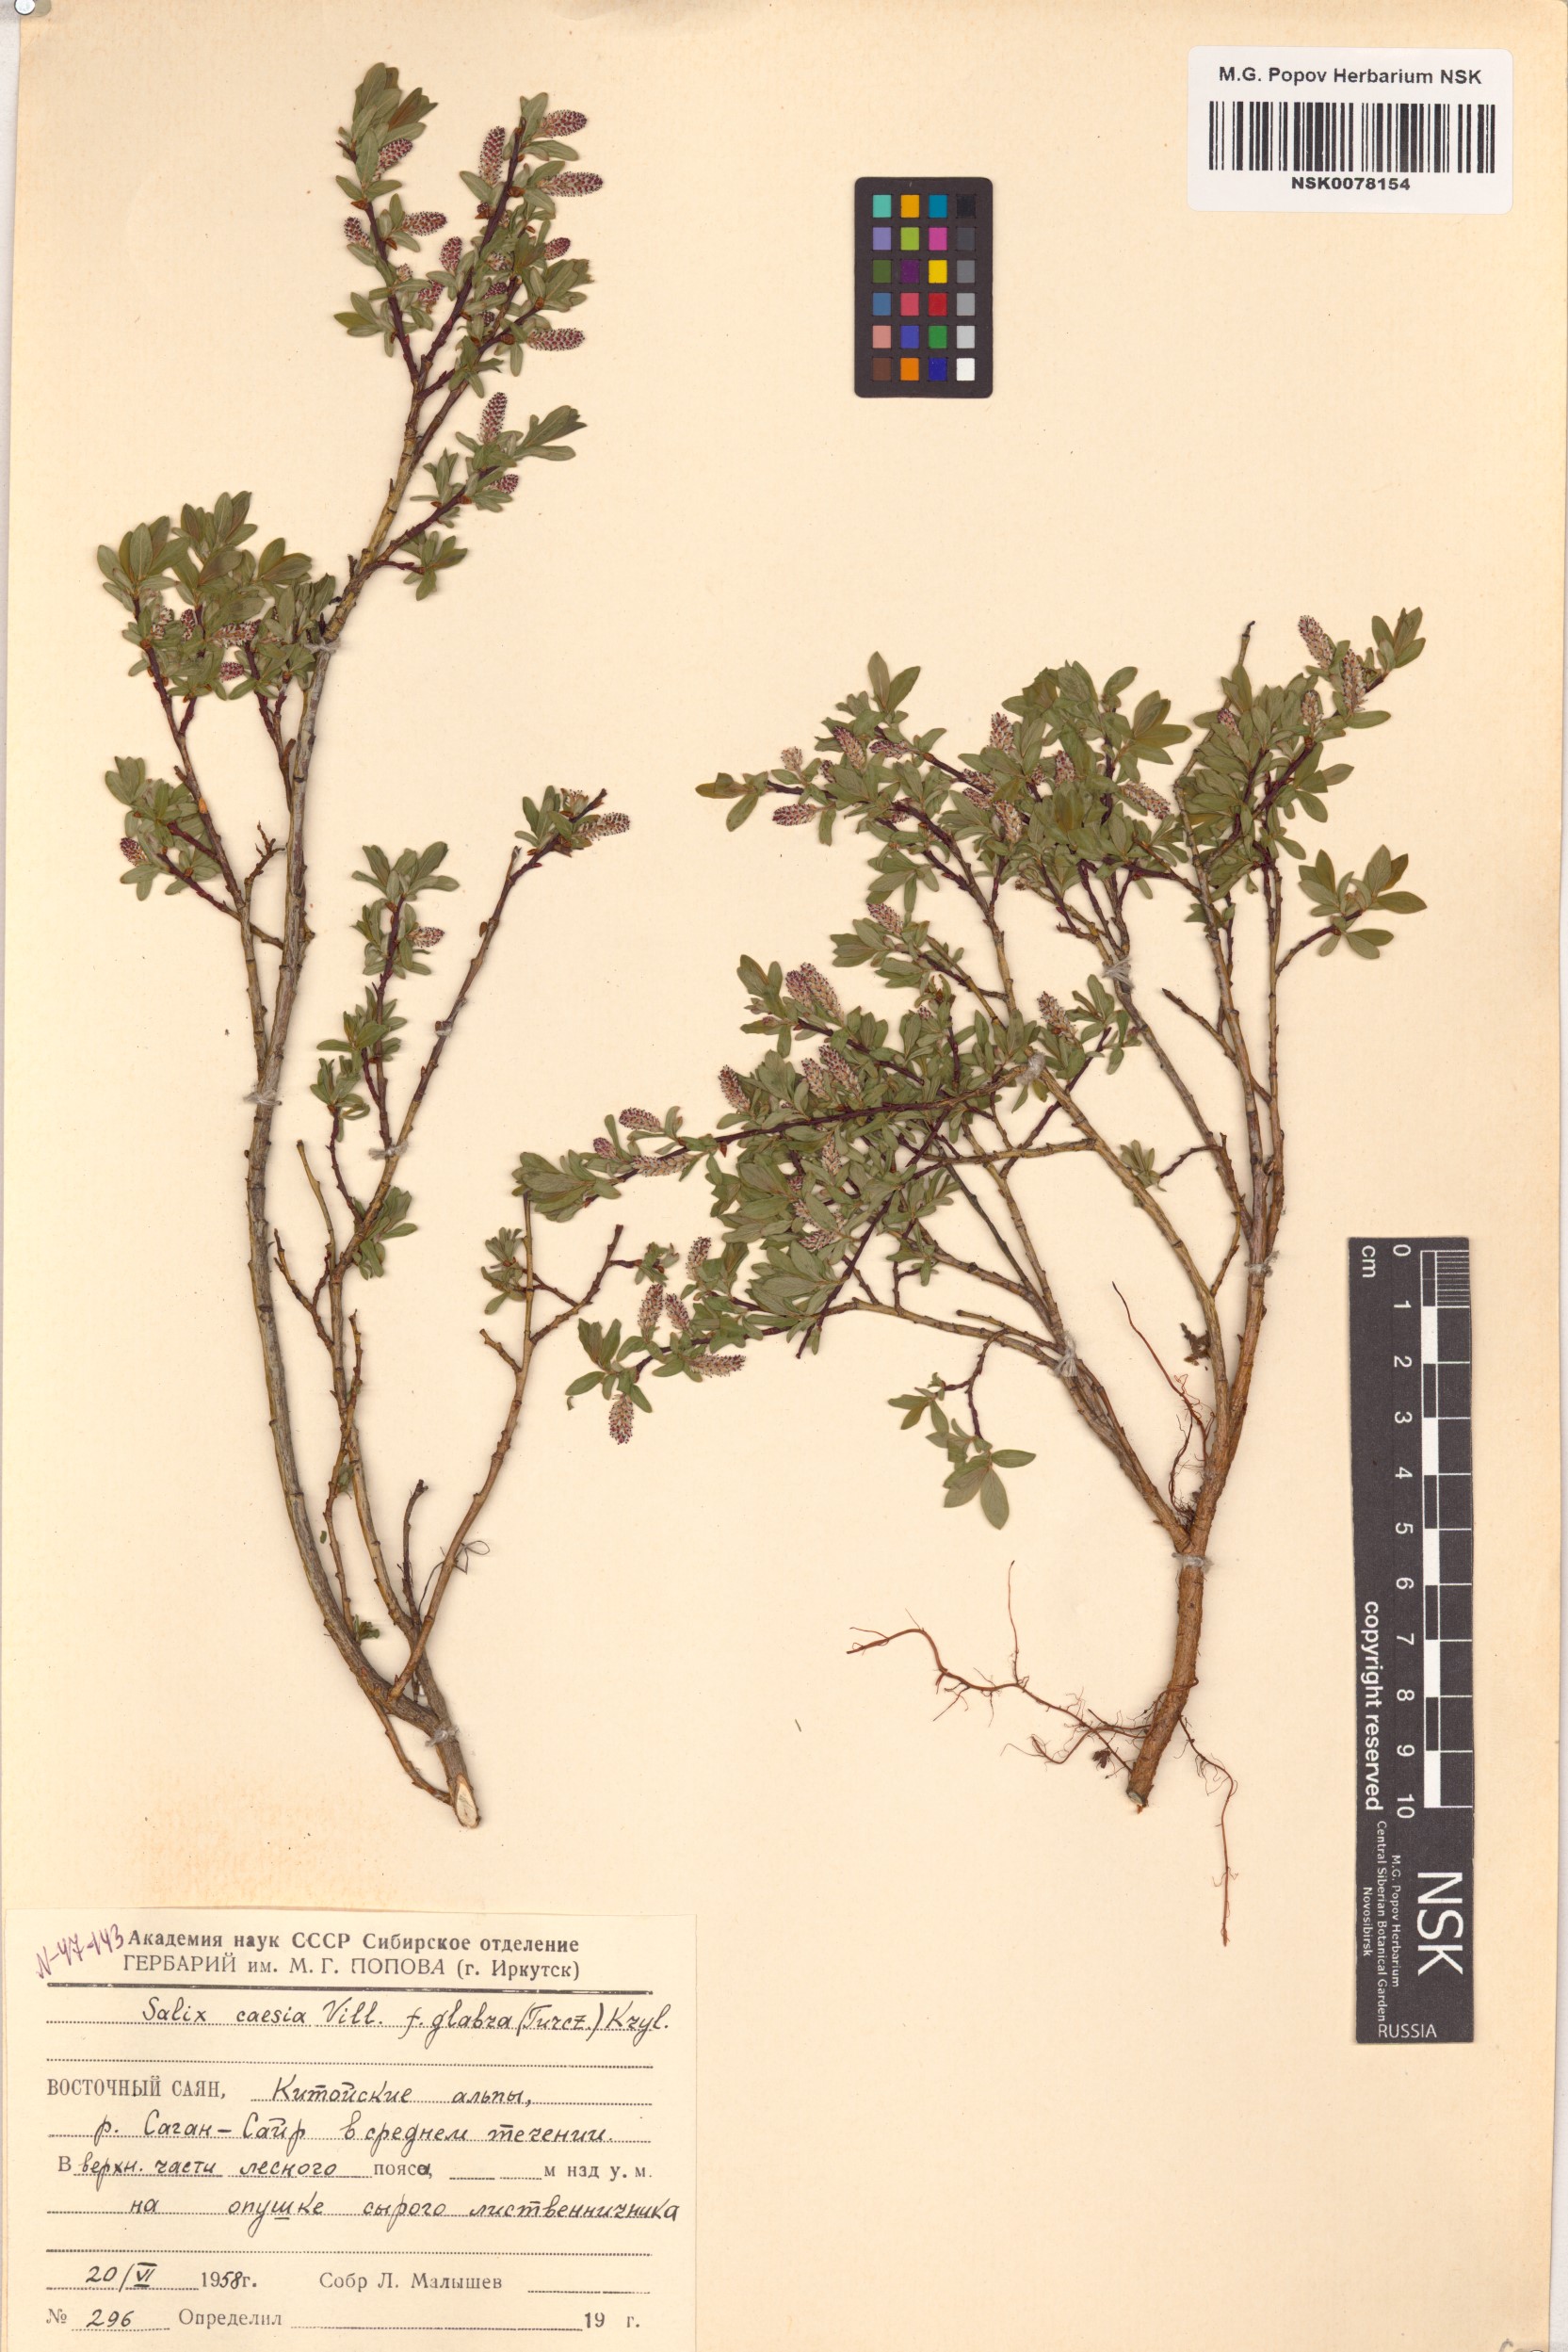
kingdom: Plantae
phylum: Tracheophyta
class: Magnoliopsida
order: Malpighiales
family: Salicaceae
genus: Salix
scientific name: Salix caesia
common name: Blue willow
